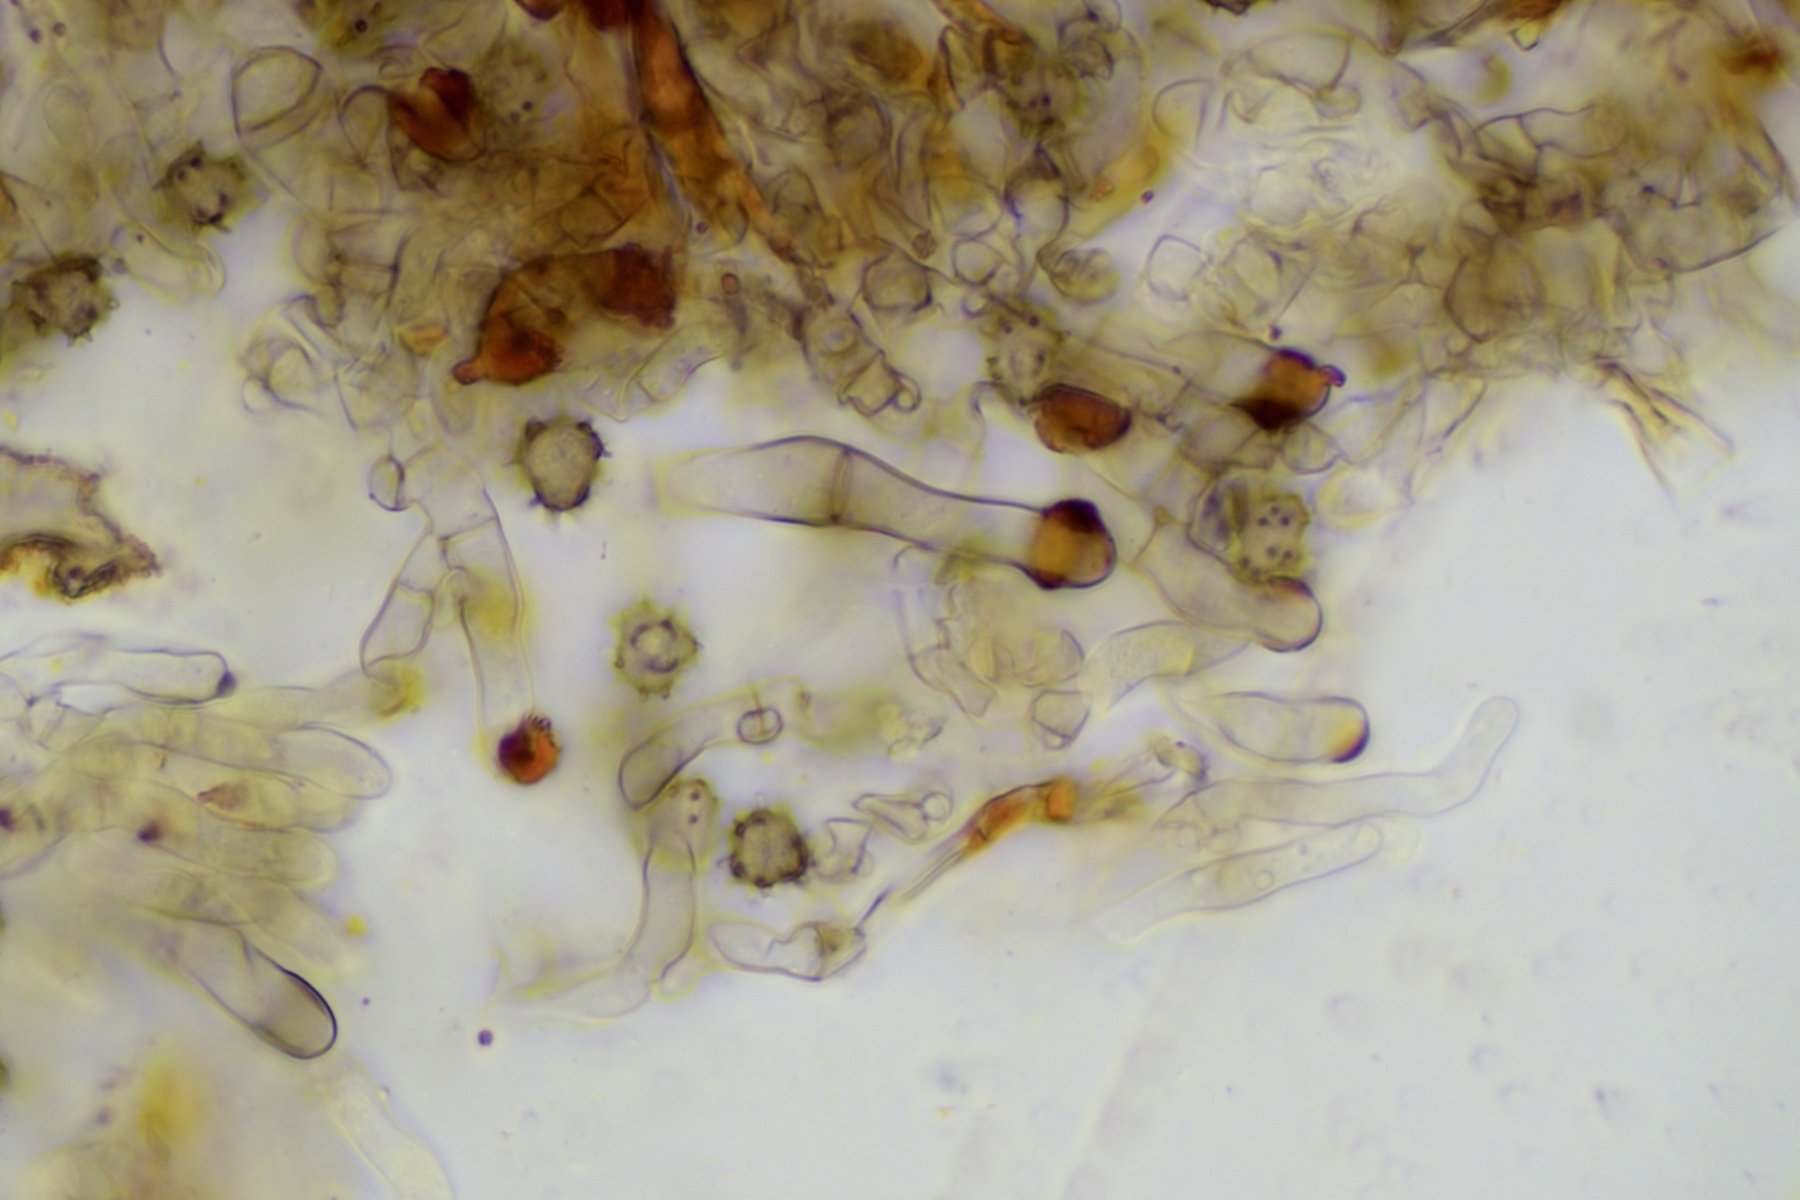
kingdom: Fungi
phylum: Basidiomycota
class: Agaricomycetes
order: Thelephorales
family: Thelephoraceae
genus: Tomentella
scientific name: Tomentella
